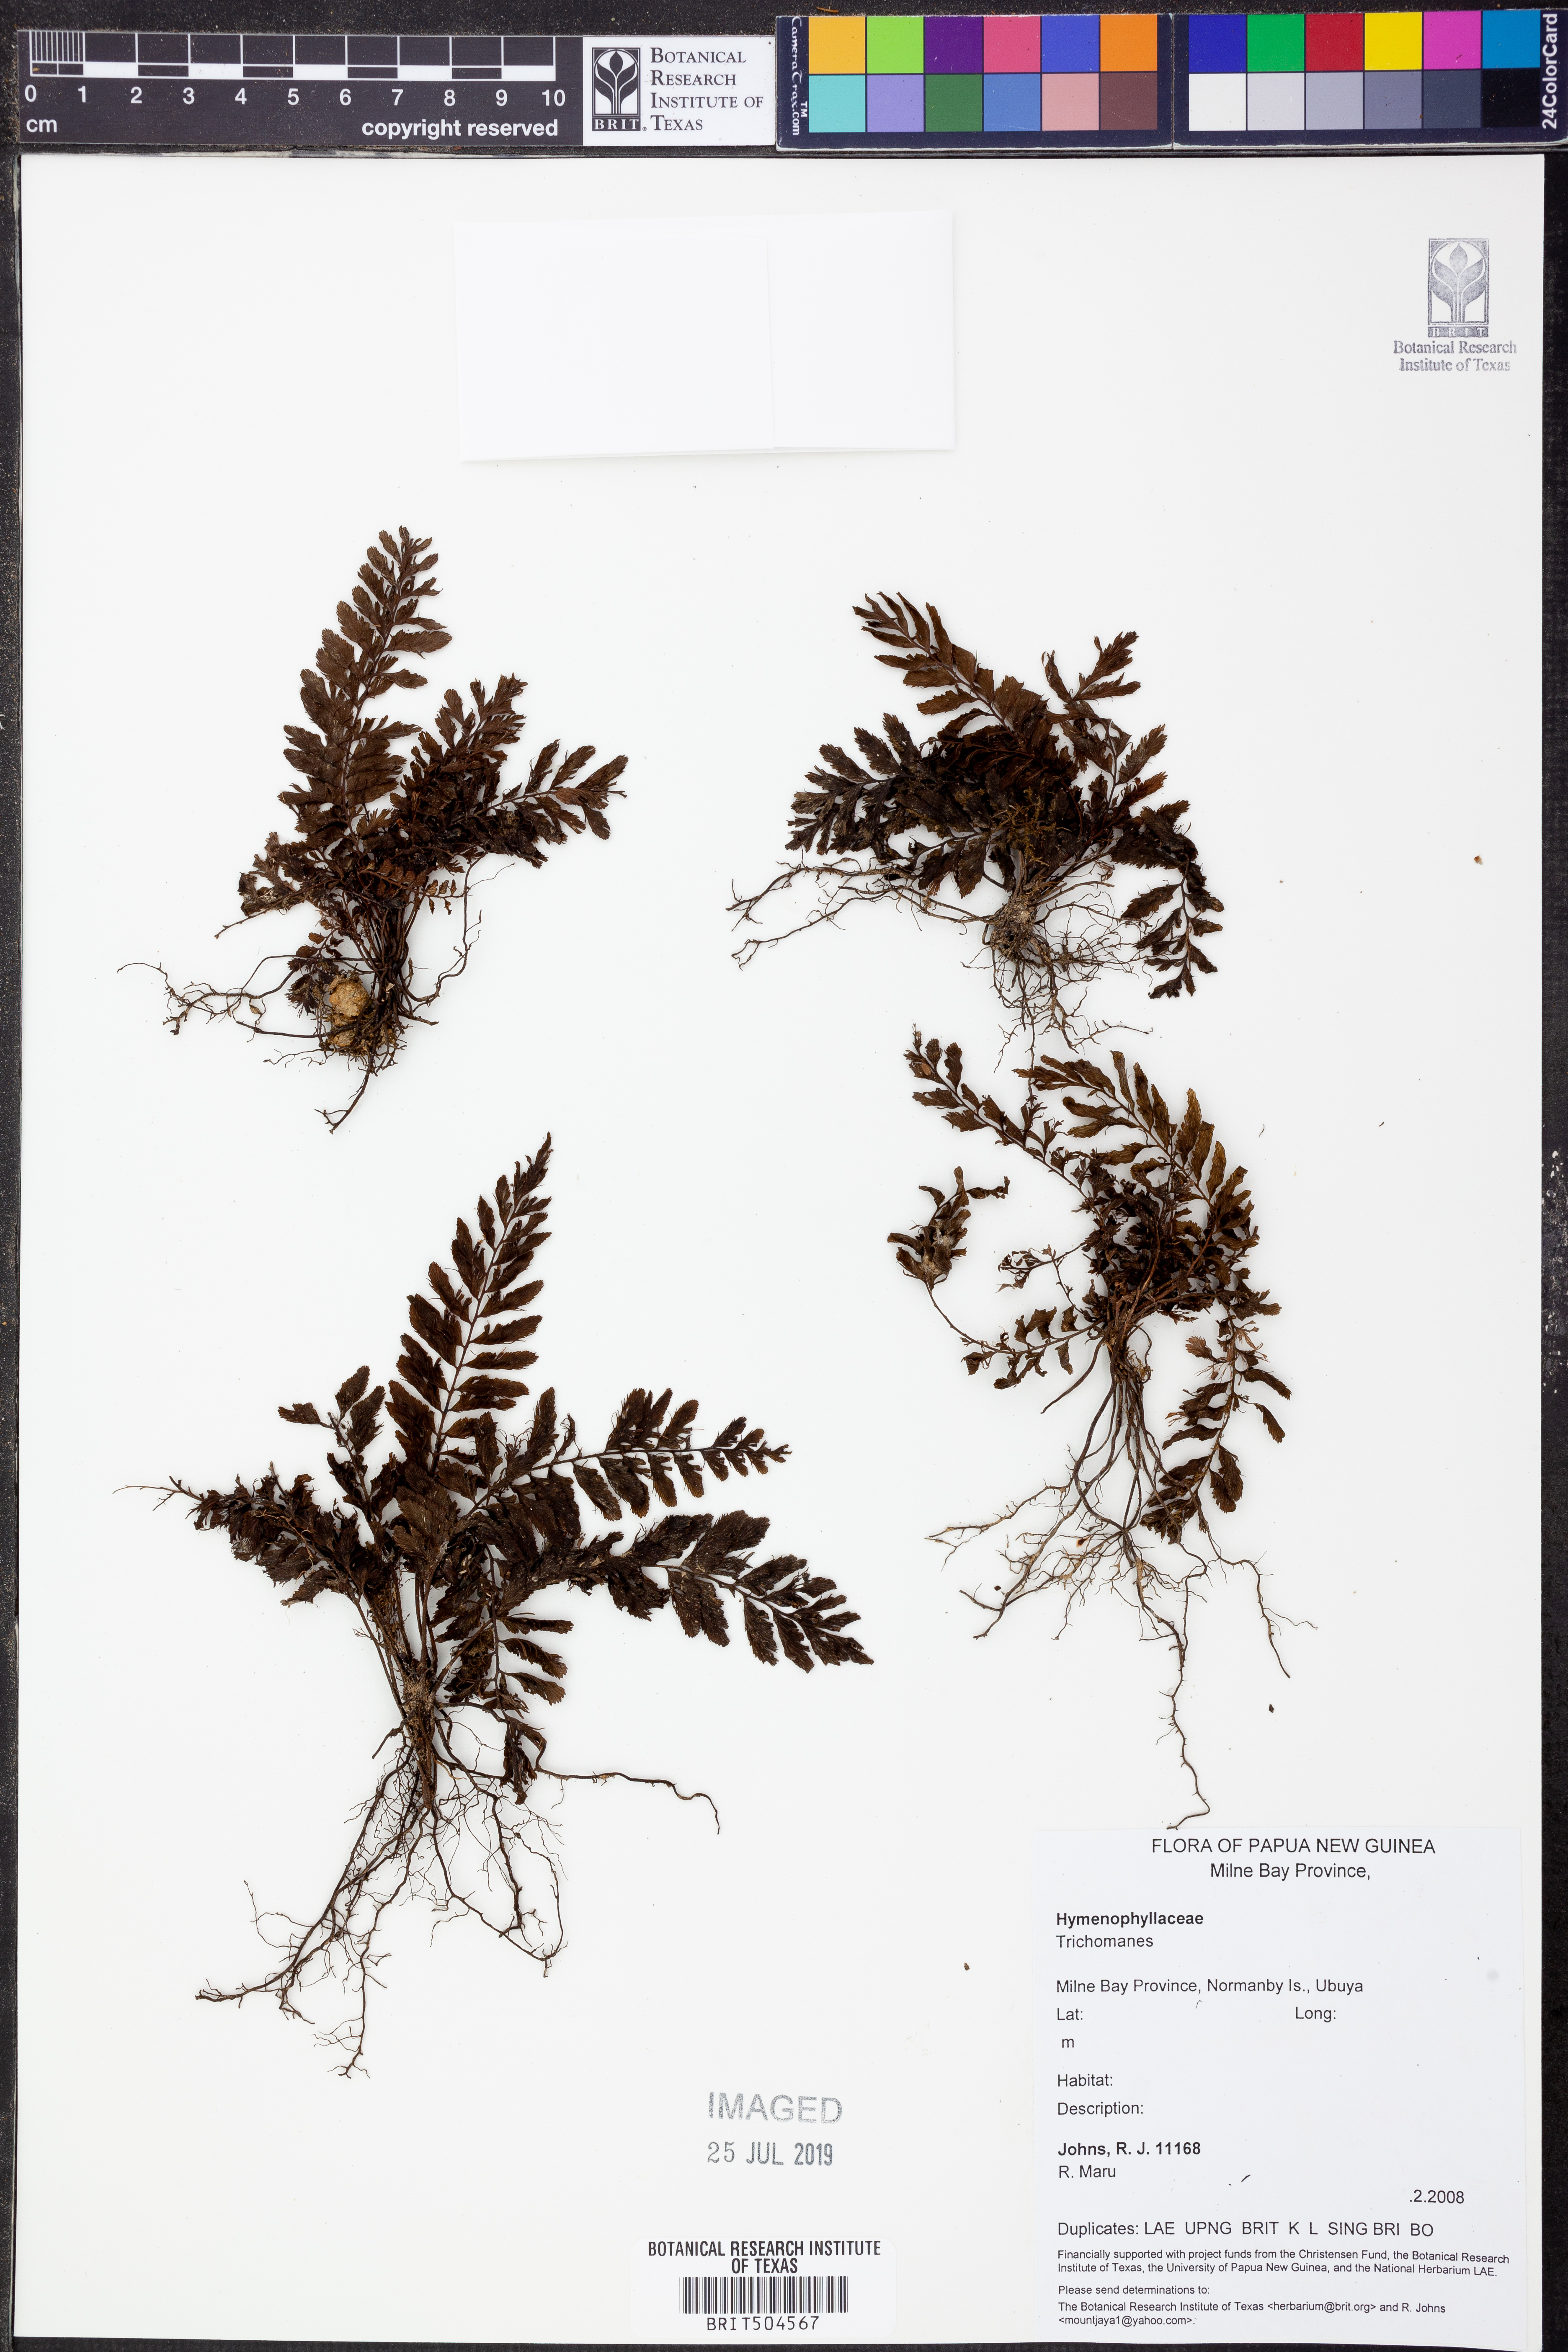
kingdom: Plantae
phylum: Tracheophyta
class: Polypodiopsida
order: Hymenophyllales
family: Hymenophyllaceae
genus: Trichomanes
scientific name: Trichomanes
